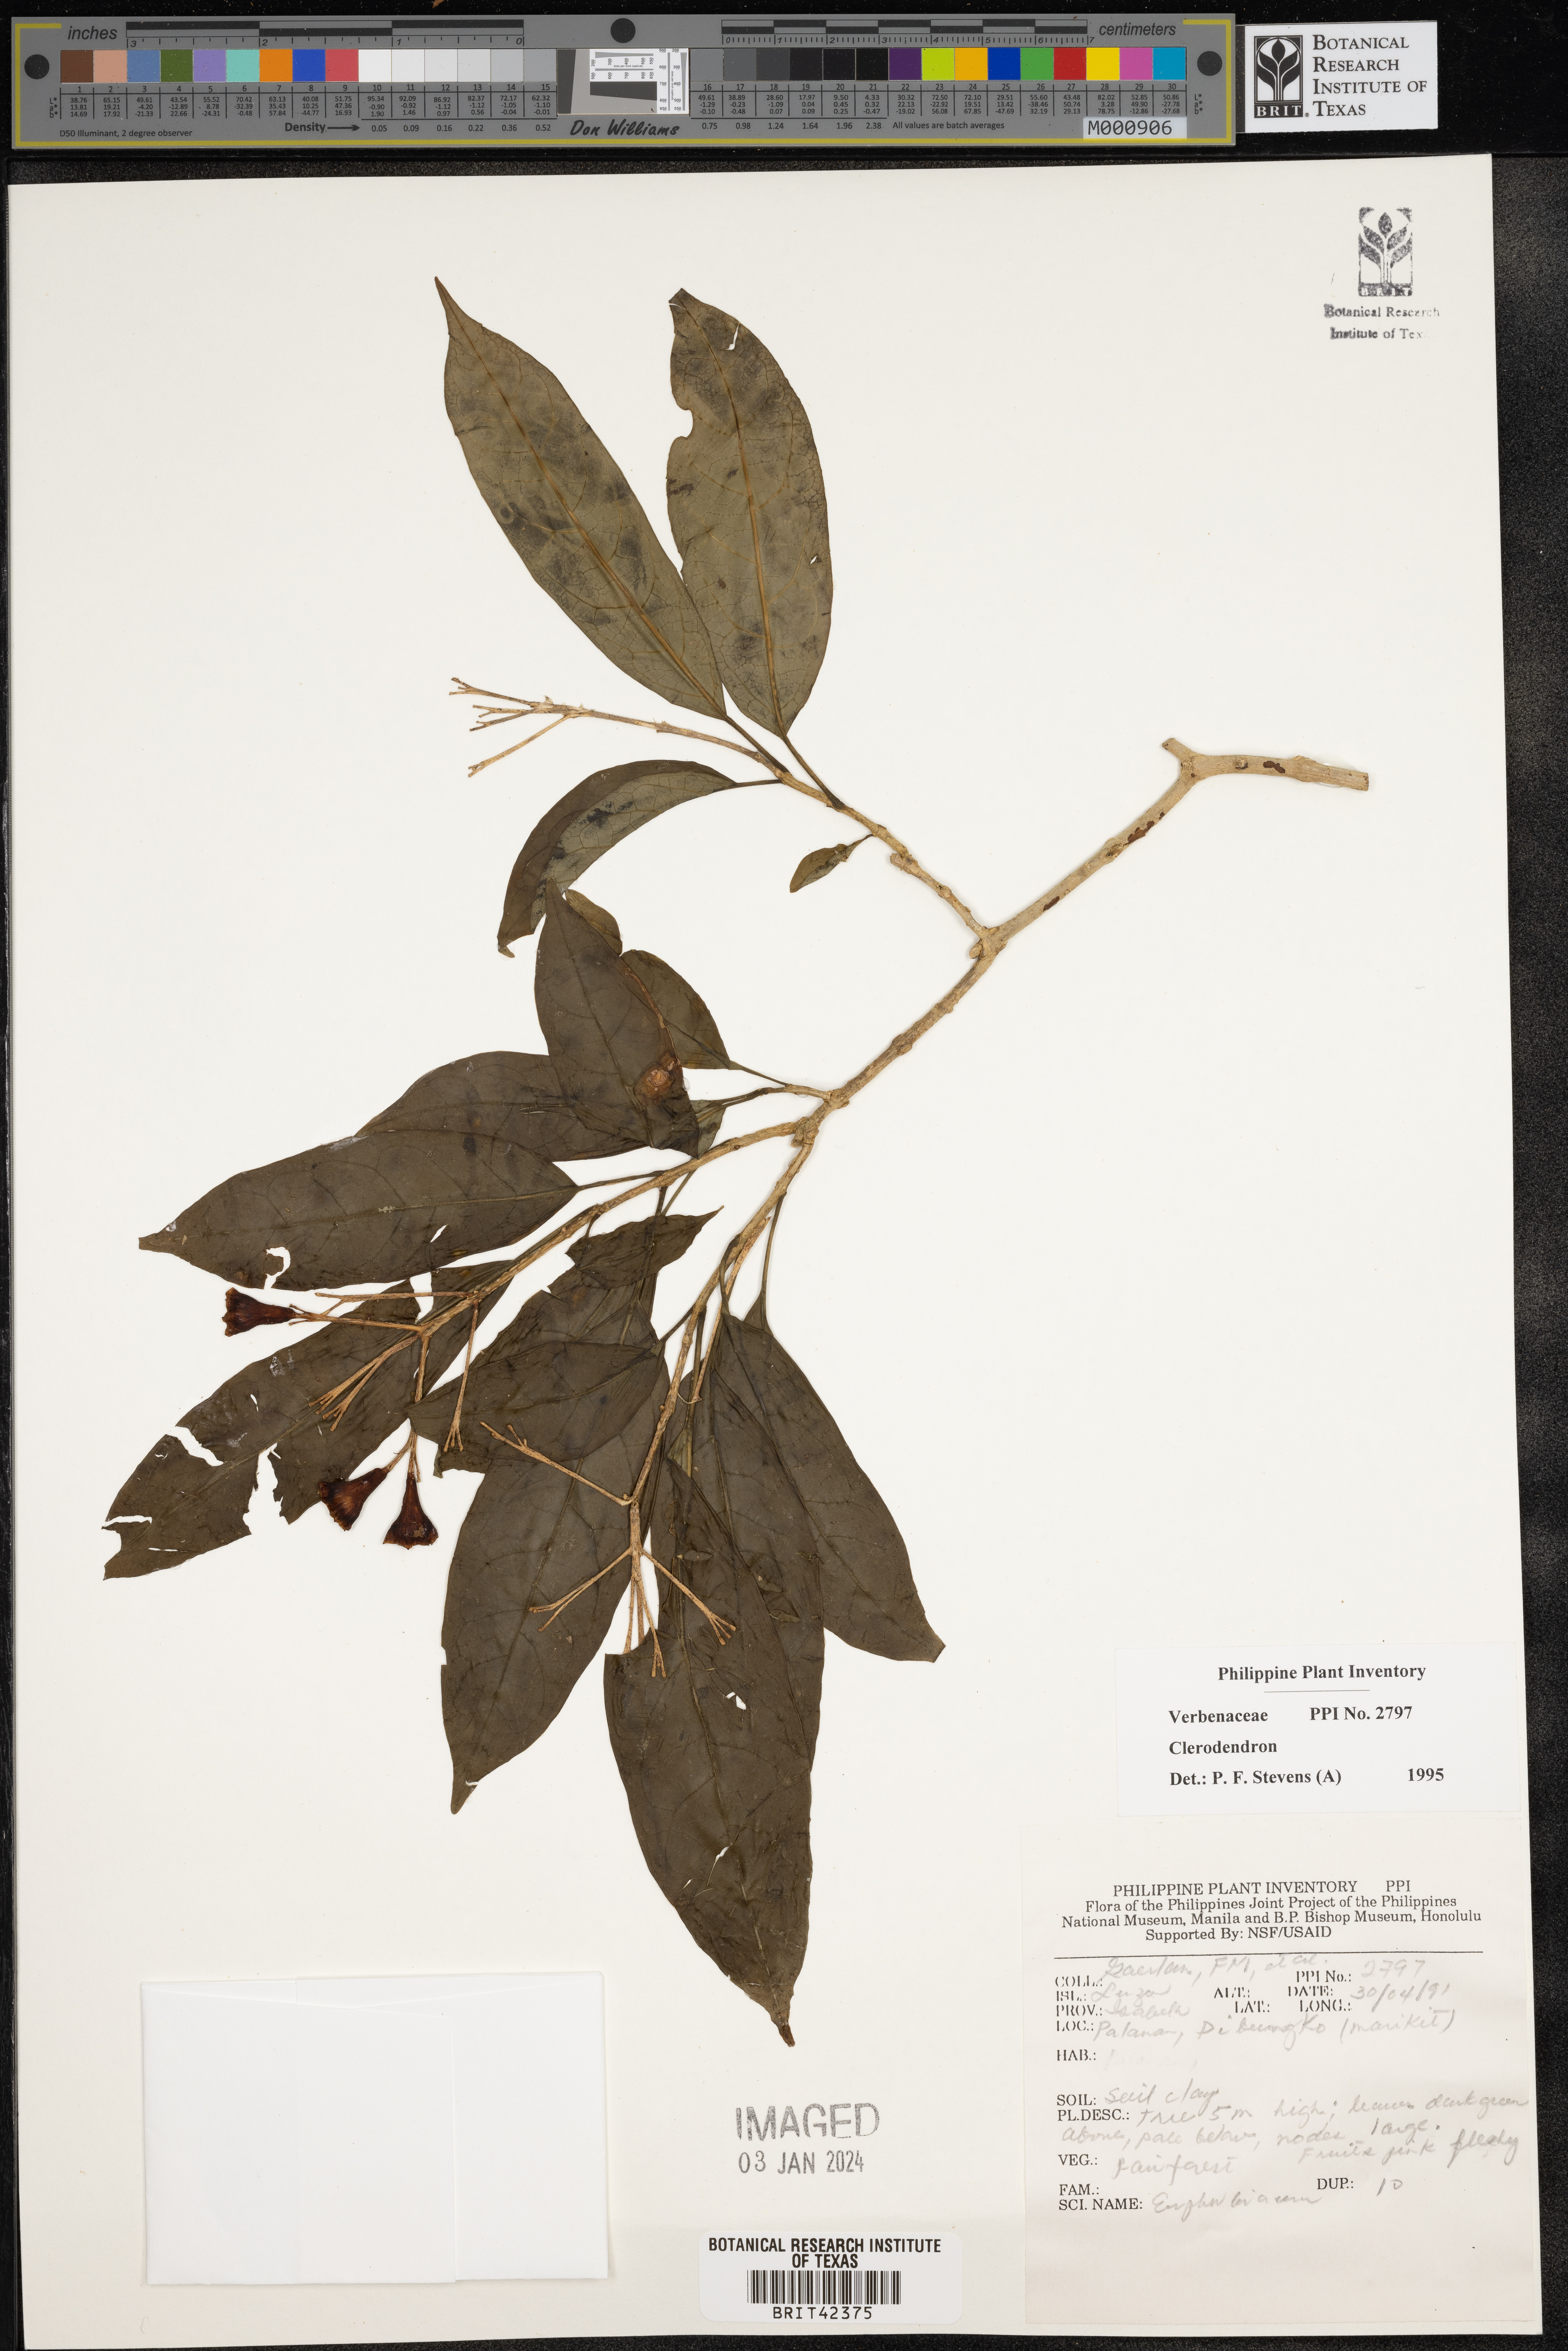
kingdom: Plantae
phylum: Tracheophyta
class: Magnoliopsida
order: Lamiales
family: Lamiaceae
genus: Clerodendrum
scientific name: Clerodendrum
